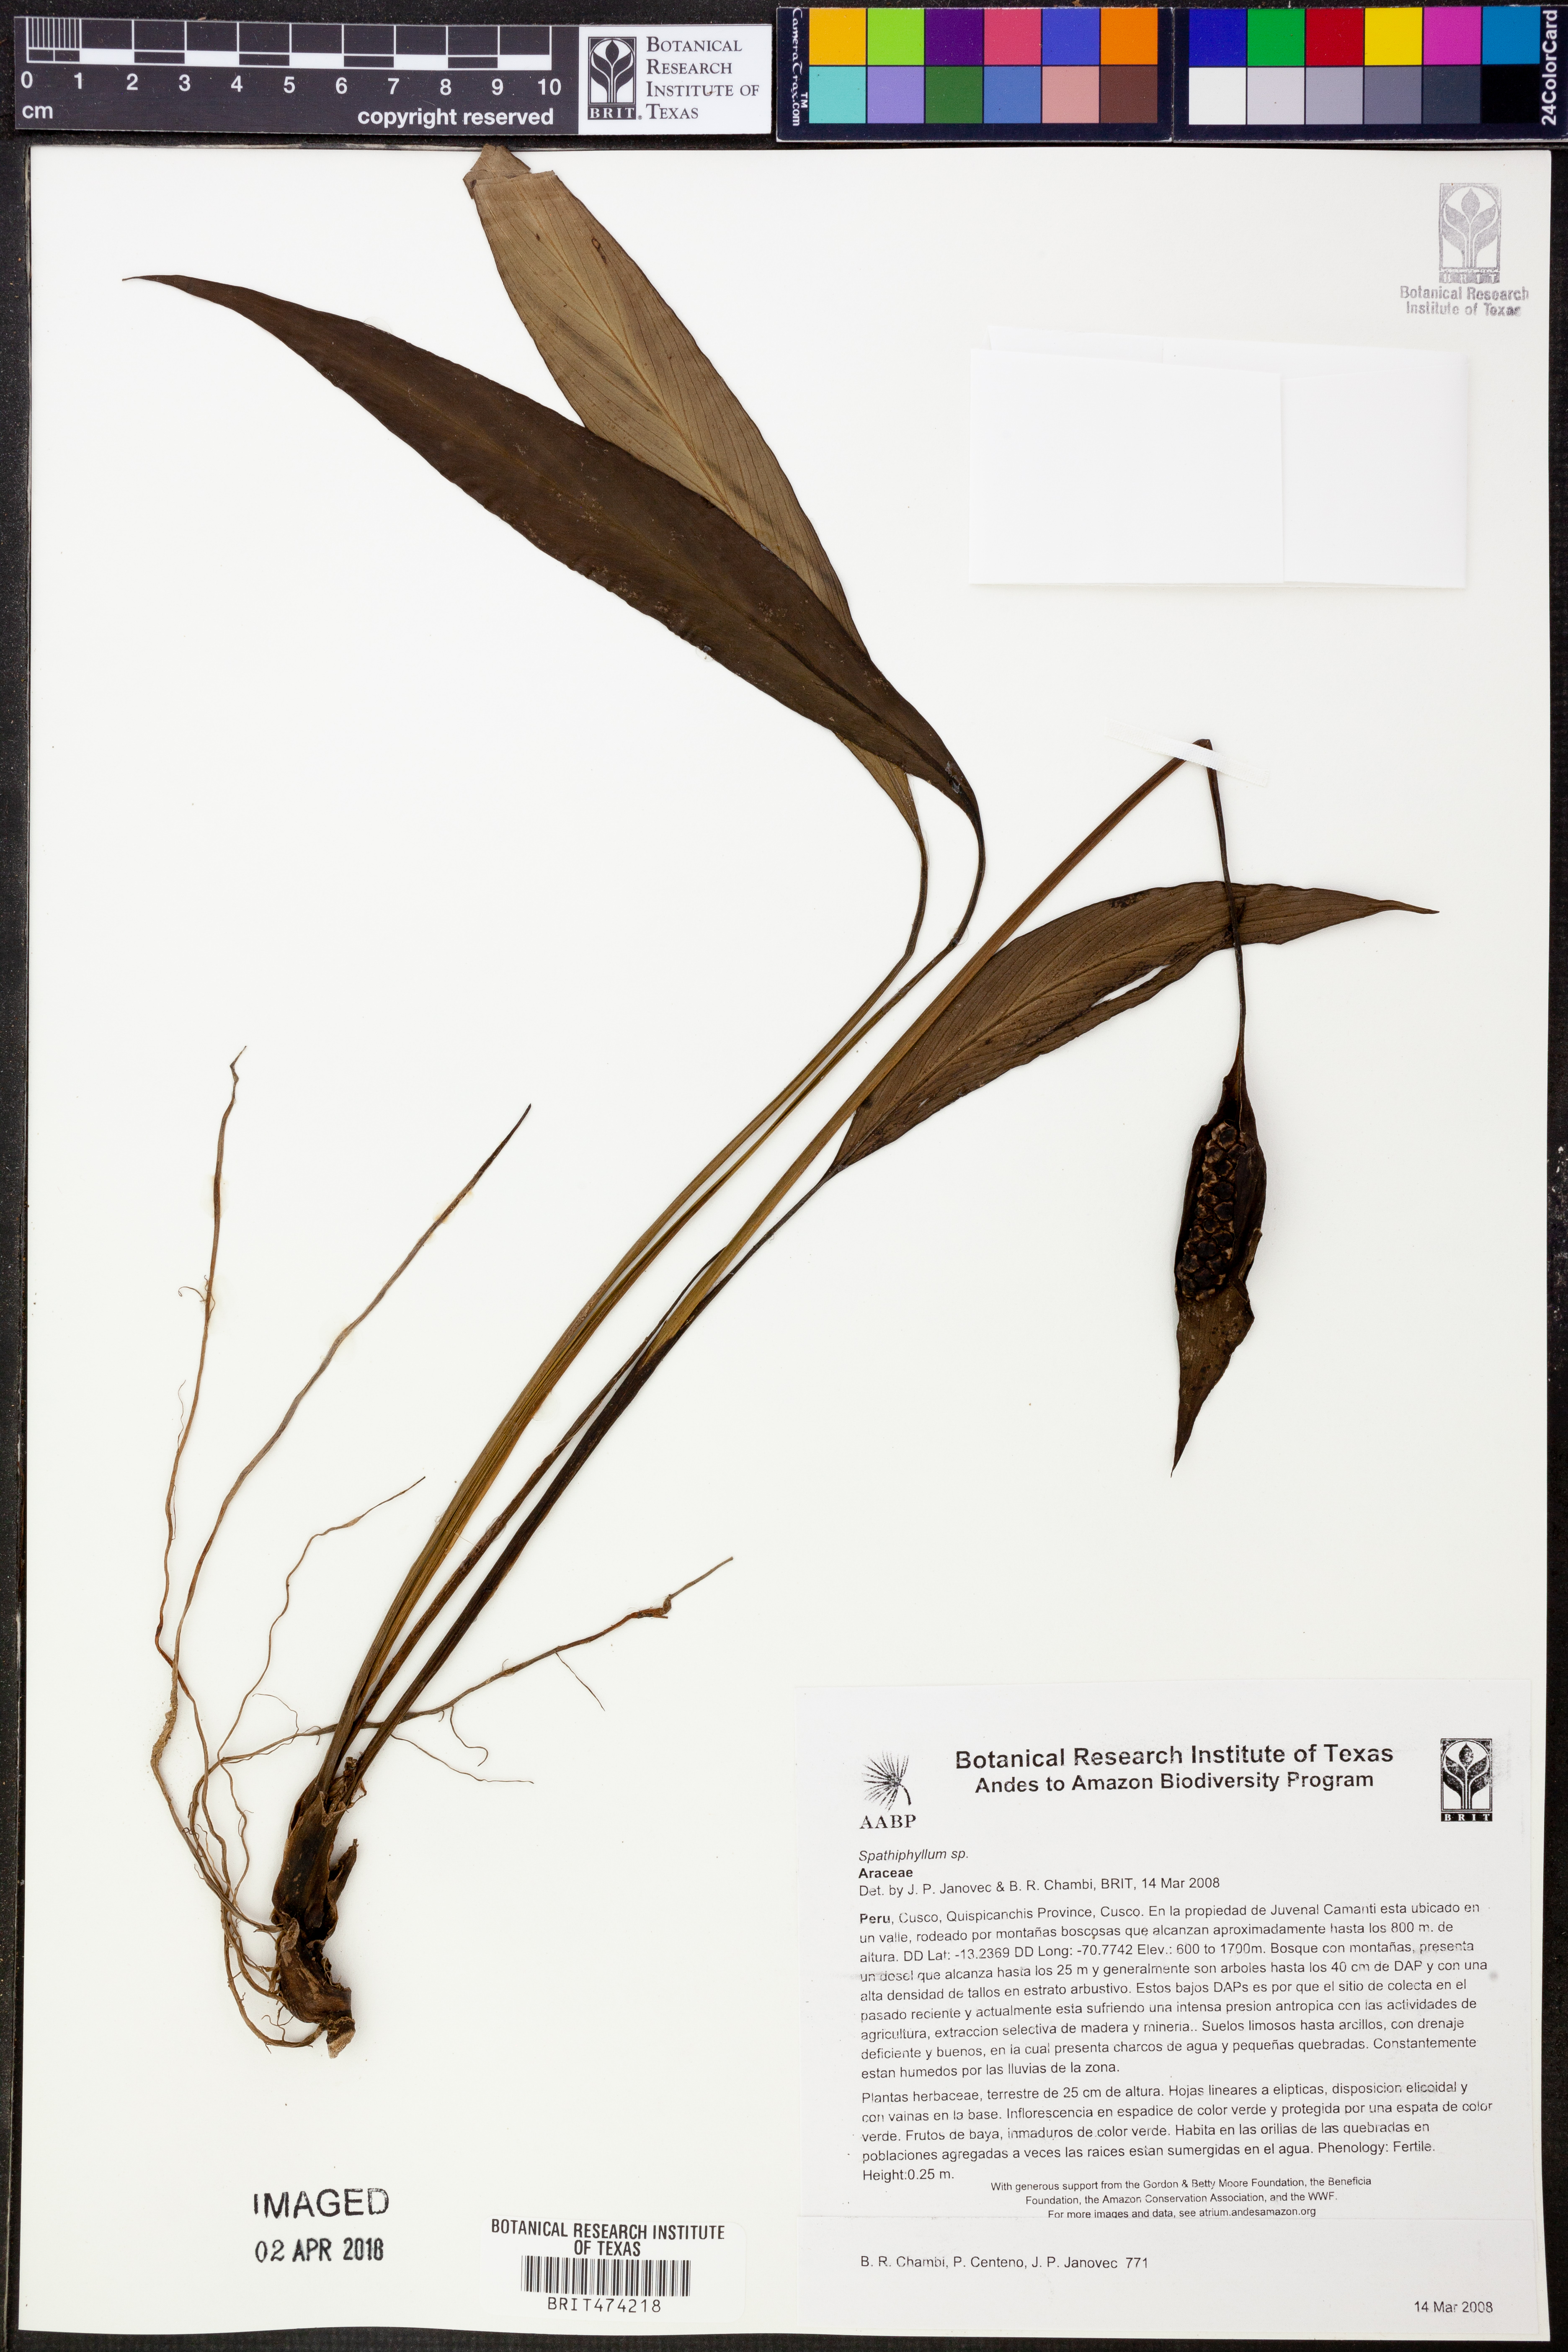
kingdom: Plantae
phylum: Tracheophyta
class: Liliopsida
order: Alismatales
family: Araceae
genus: Spathiphyllum
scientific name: Spathiphyllum gracile
